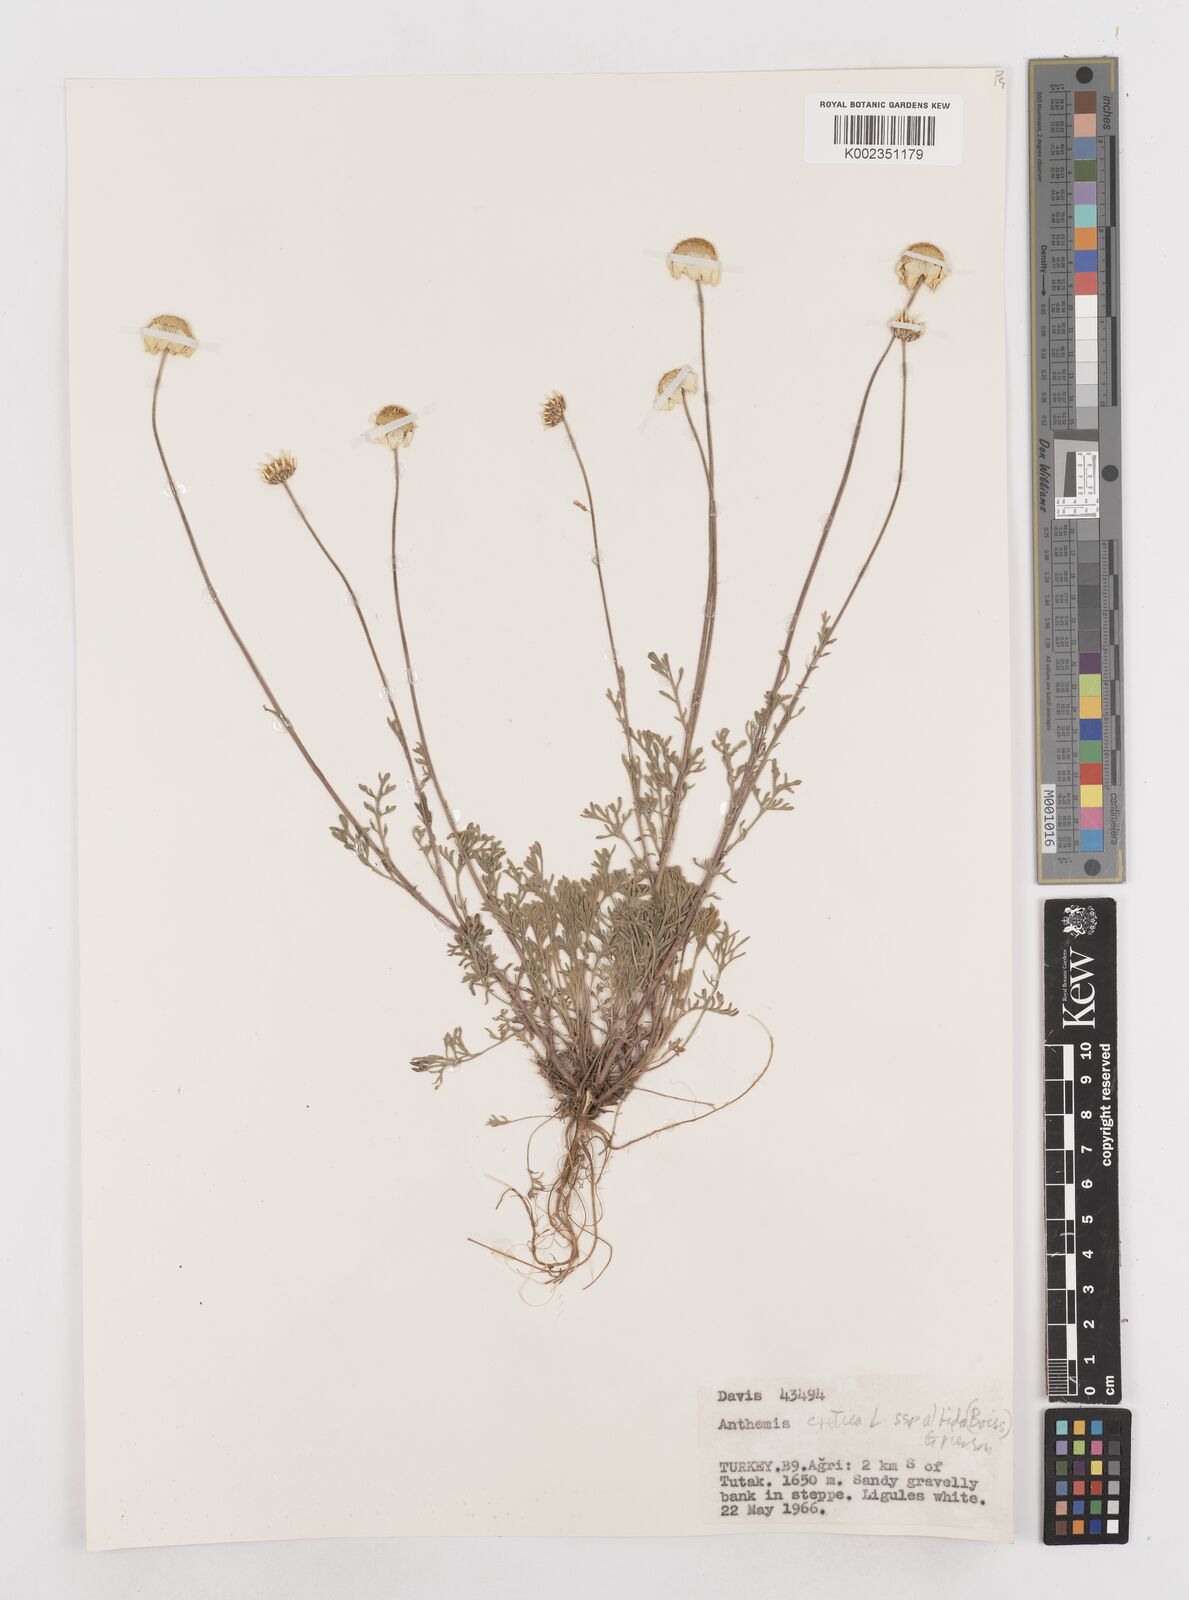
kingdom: Plantae
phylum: Tracheophyta
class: Magnoliopsida
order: Asterales
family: Asteraceae
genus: Anthemis
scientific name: Anthemis cretica
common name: Mountain dog-daisy
